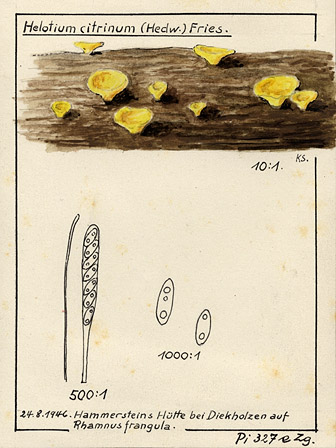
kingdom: Fungi
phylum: Ascomycota
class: Leotiomycetes
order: Helotiales
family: Pezizellaceae
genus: Calycina
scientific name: Calycina citrina
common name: Yellow fairy cups
